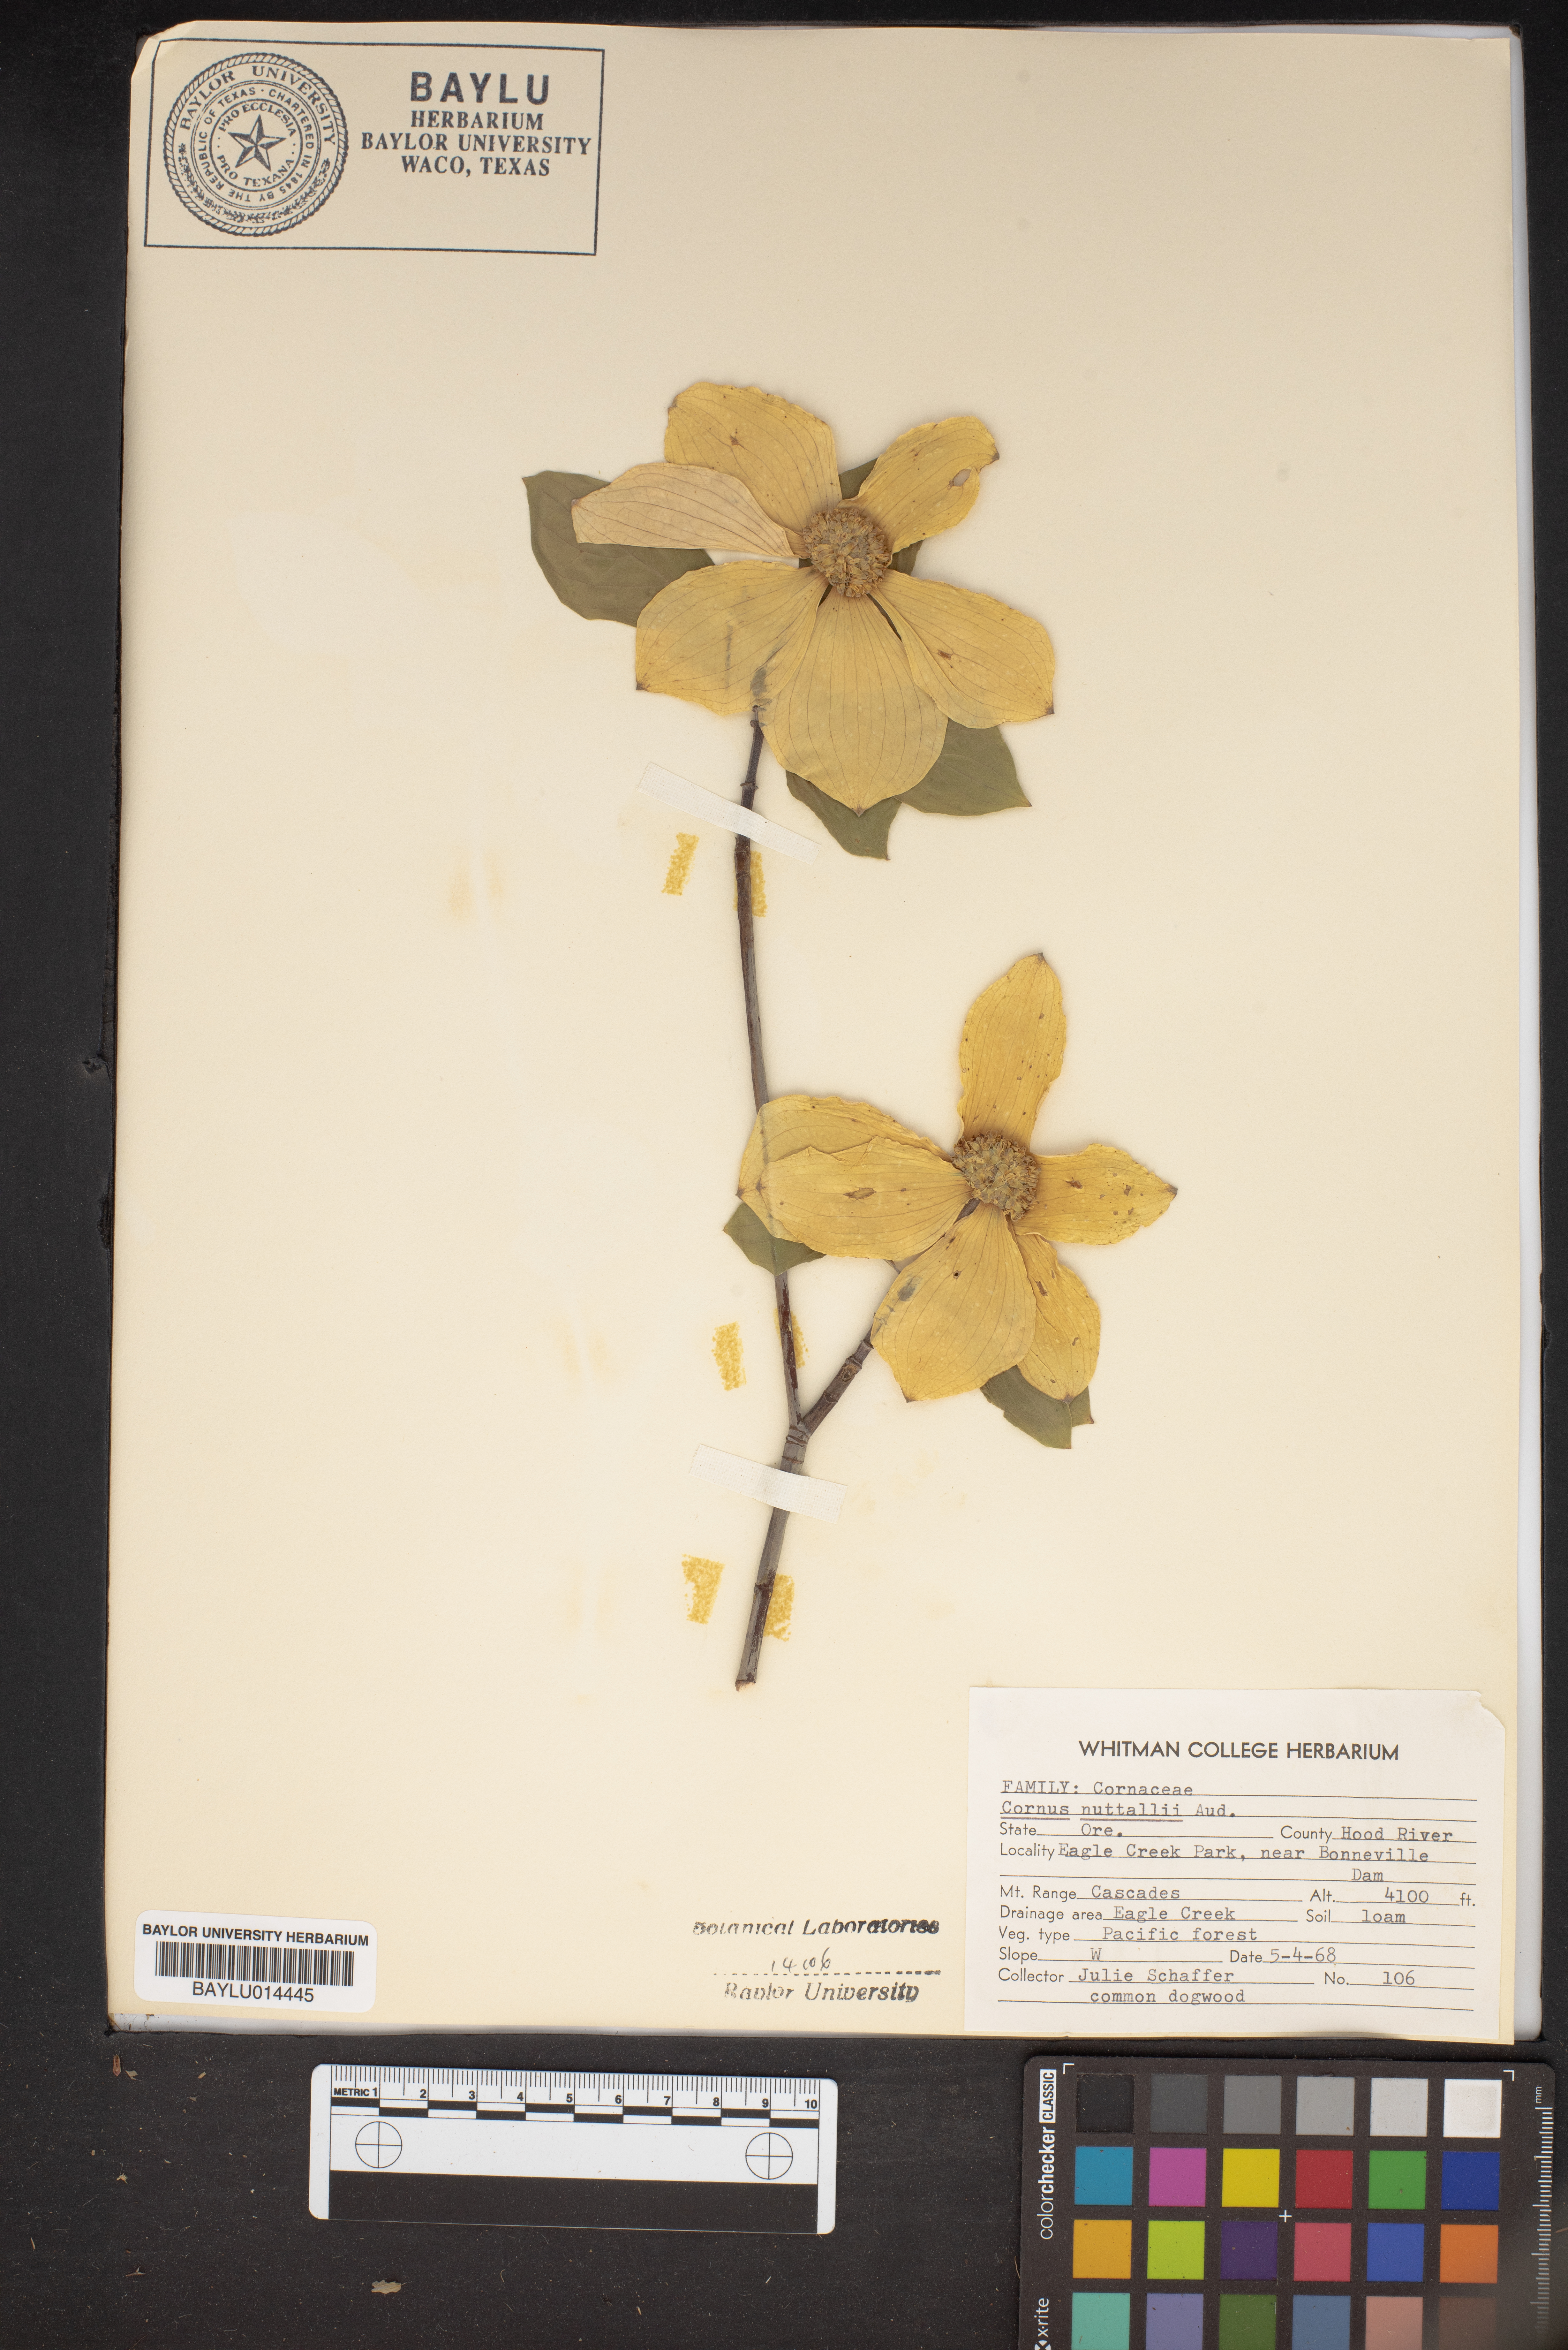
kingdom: Plantae
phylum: Tracheophyta
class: Magnoliopsida
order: Cornales
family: Cornaceae
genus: Cornus
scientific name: Cornus nuttallii
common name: Pacific dogwood
